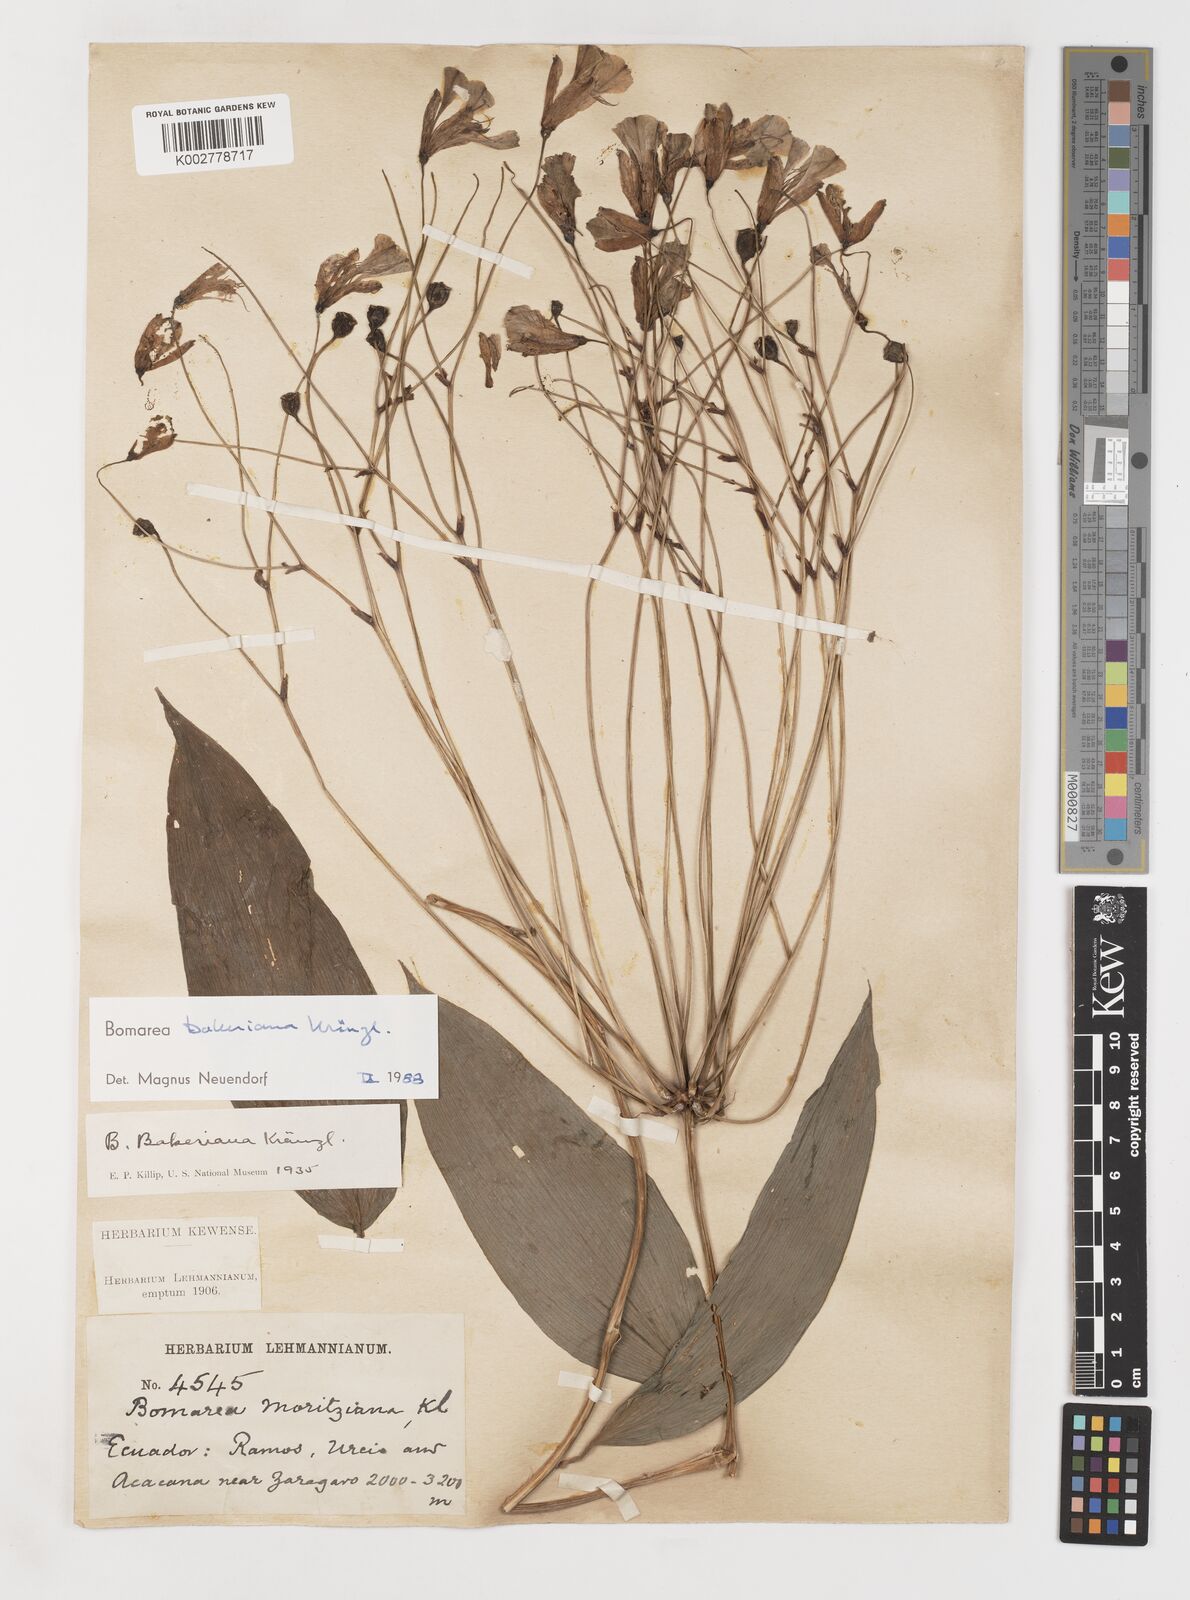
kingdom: Plantae
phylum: Tracheophyta
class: Liliopsida
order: Liliales
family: Alstroemeriaceae
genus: Bomarea
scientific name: Bomarea edulis
